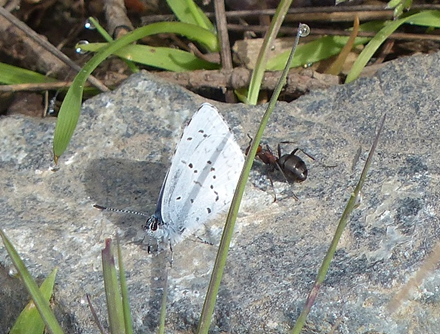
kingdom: Animalia
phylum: Arthropoda
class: Insecta
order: Lepidoptera
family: Lycaenidae
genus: Celastrina
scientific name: Celastrina ladon
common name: Echo Azure
